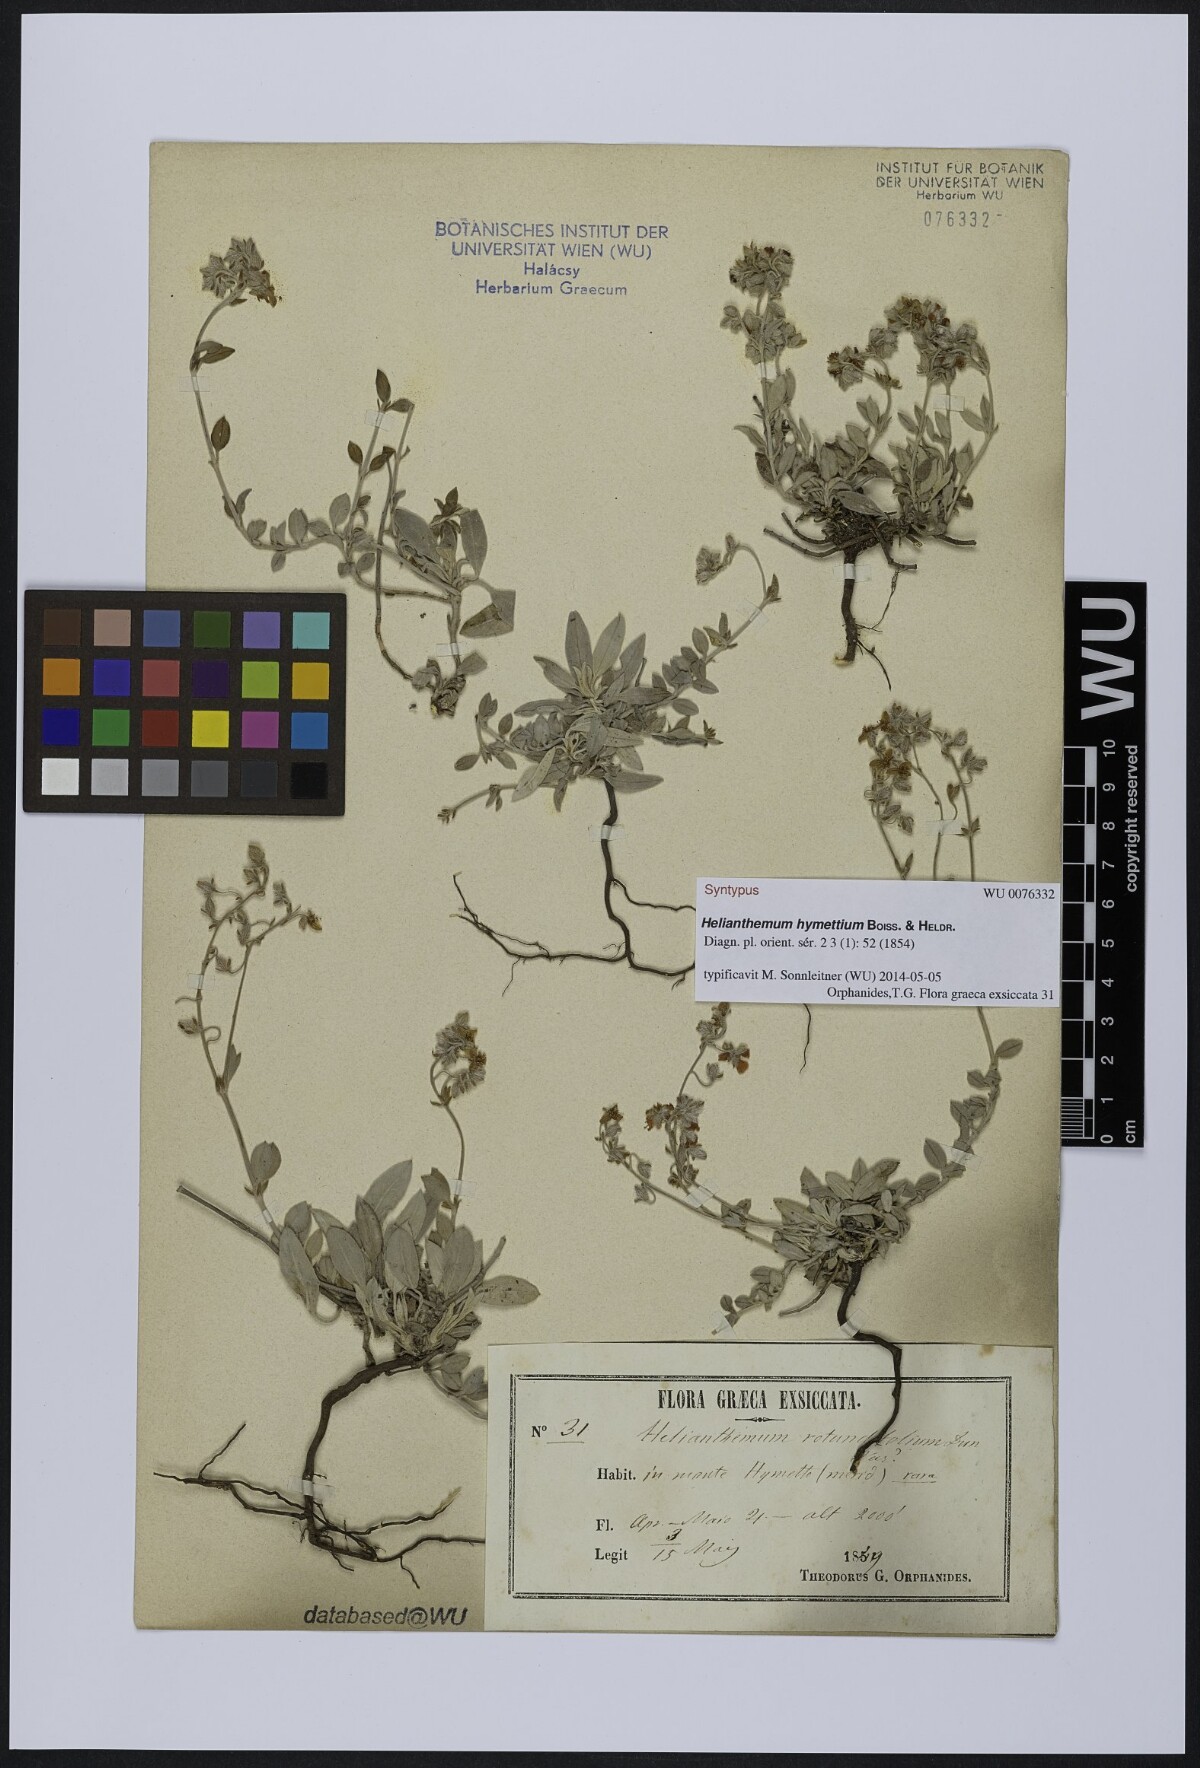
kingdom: Plantae
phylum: Tracheophyta
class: Magnoliopsida
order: Malvales
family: Cistaceae
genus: Helianthemum
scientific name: Helianthemum hymettium
